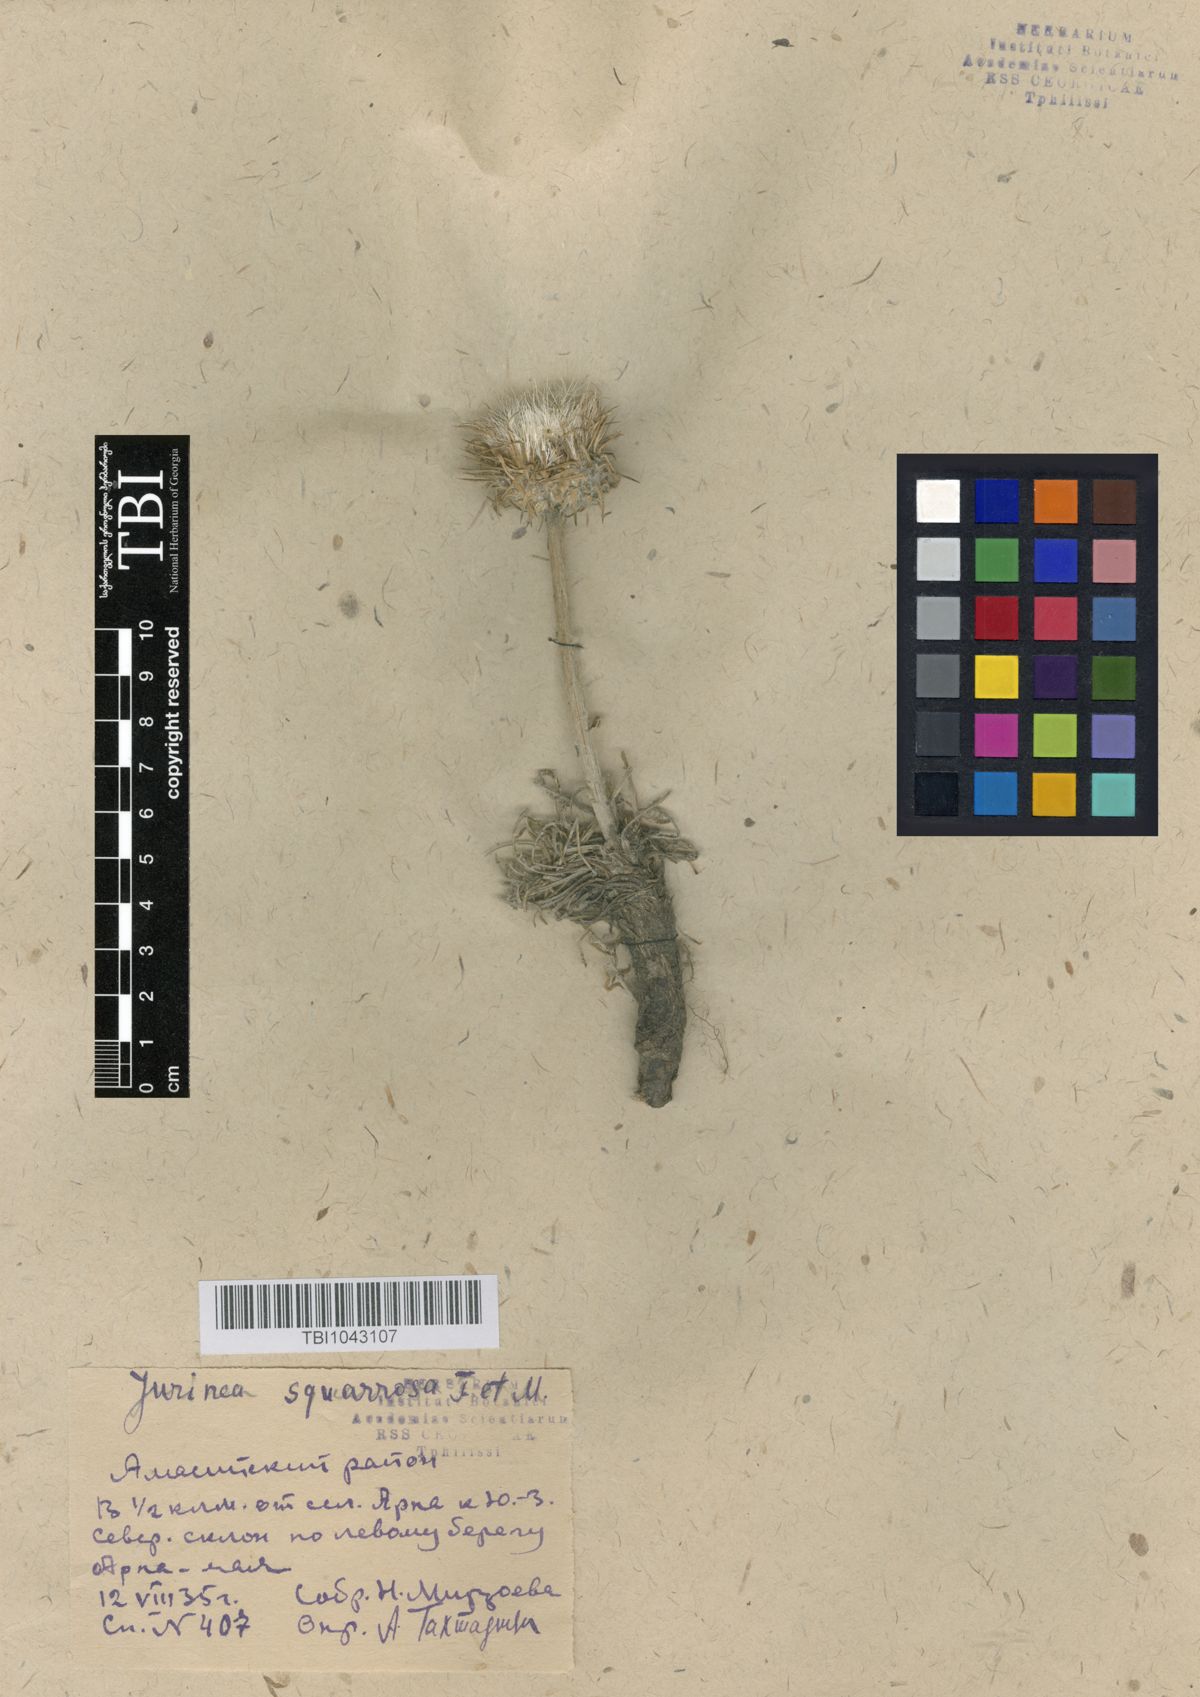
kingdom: Plantae
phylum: Tracheophyta
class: Magnoliopsida
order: Asterales
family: Asteraceae
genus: Jurinea
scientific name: Jurinea squarrosa
